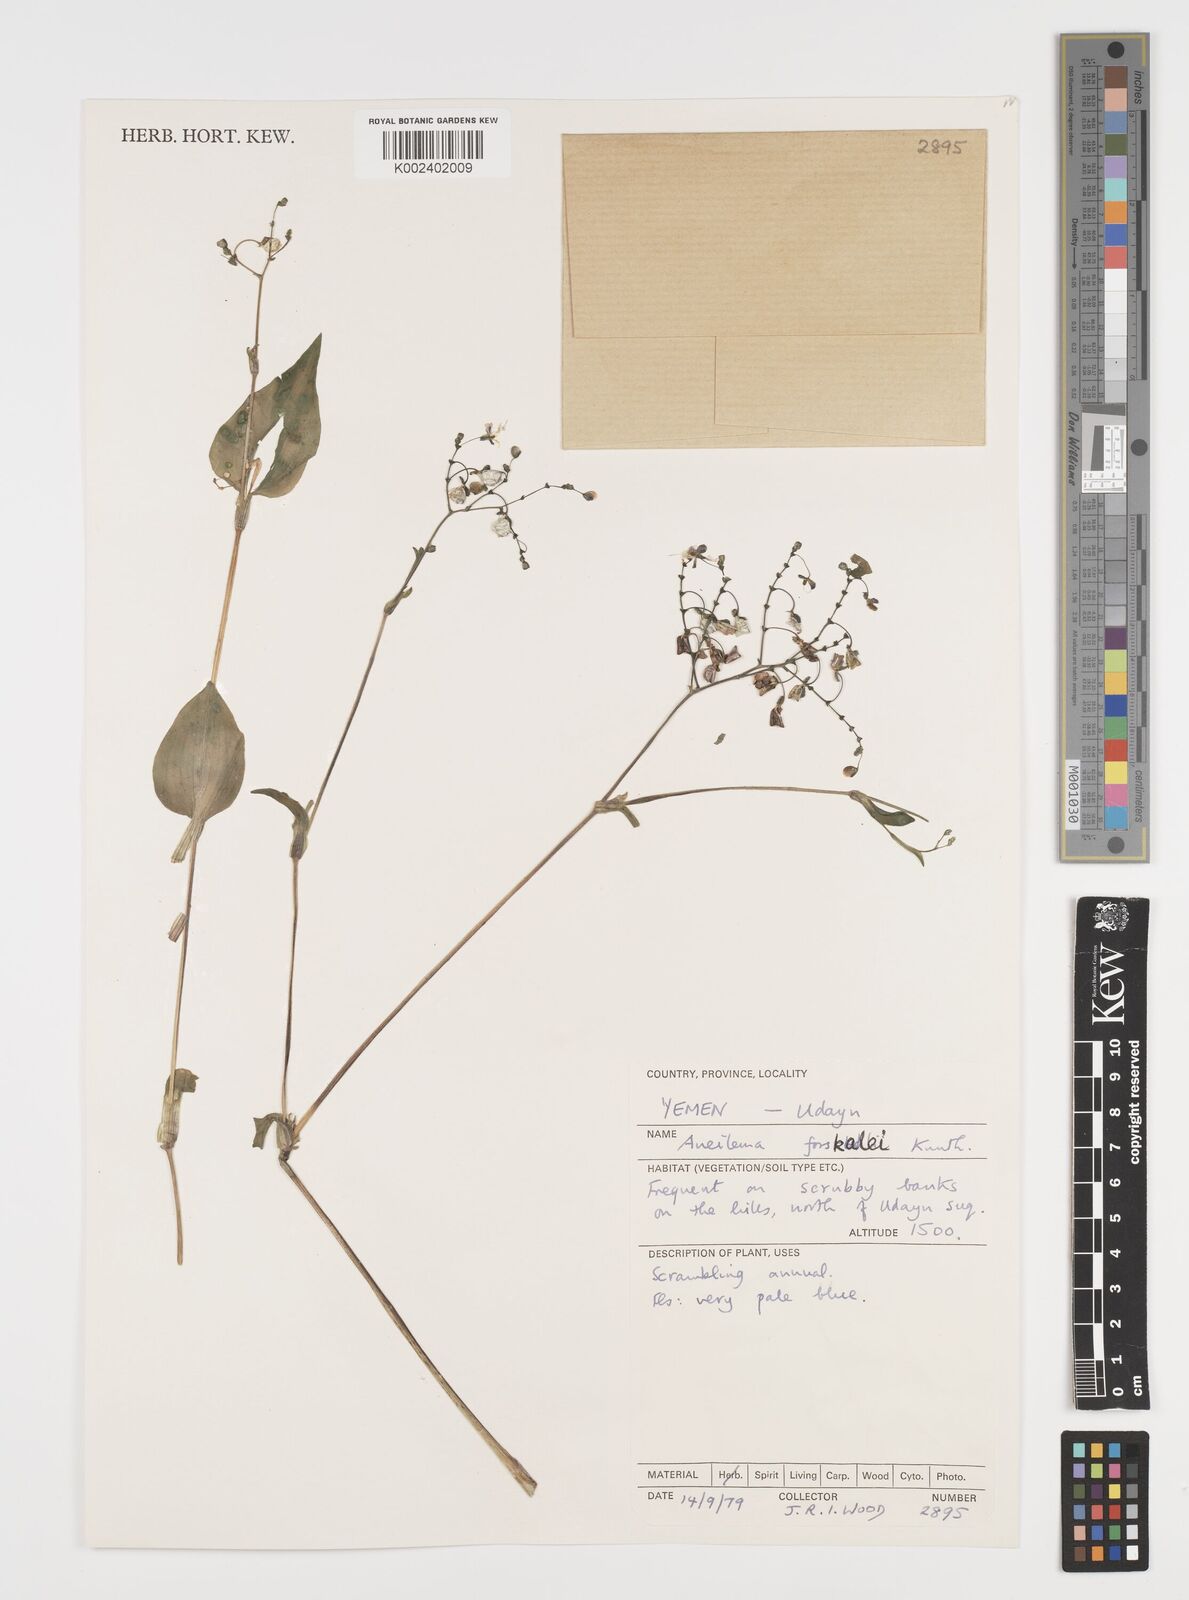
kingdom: Plantae
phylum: Tracheophyta
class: Liliopsida
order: Commelinales
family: Commelinaceae
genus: Aneilema
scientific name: Aneilema forskalii
